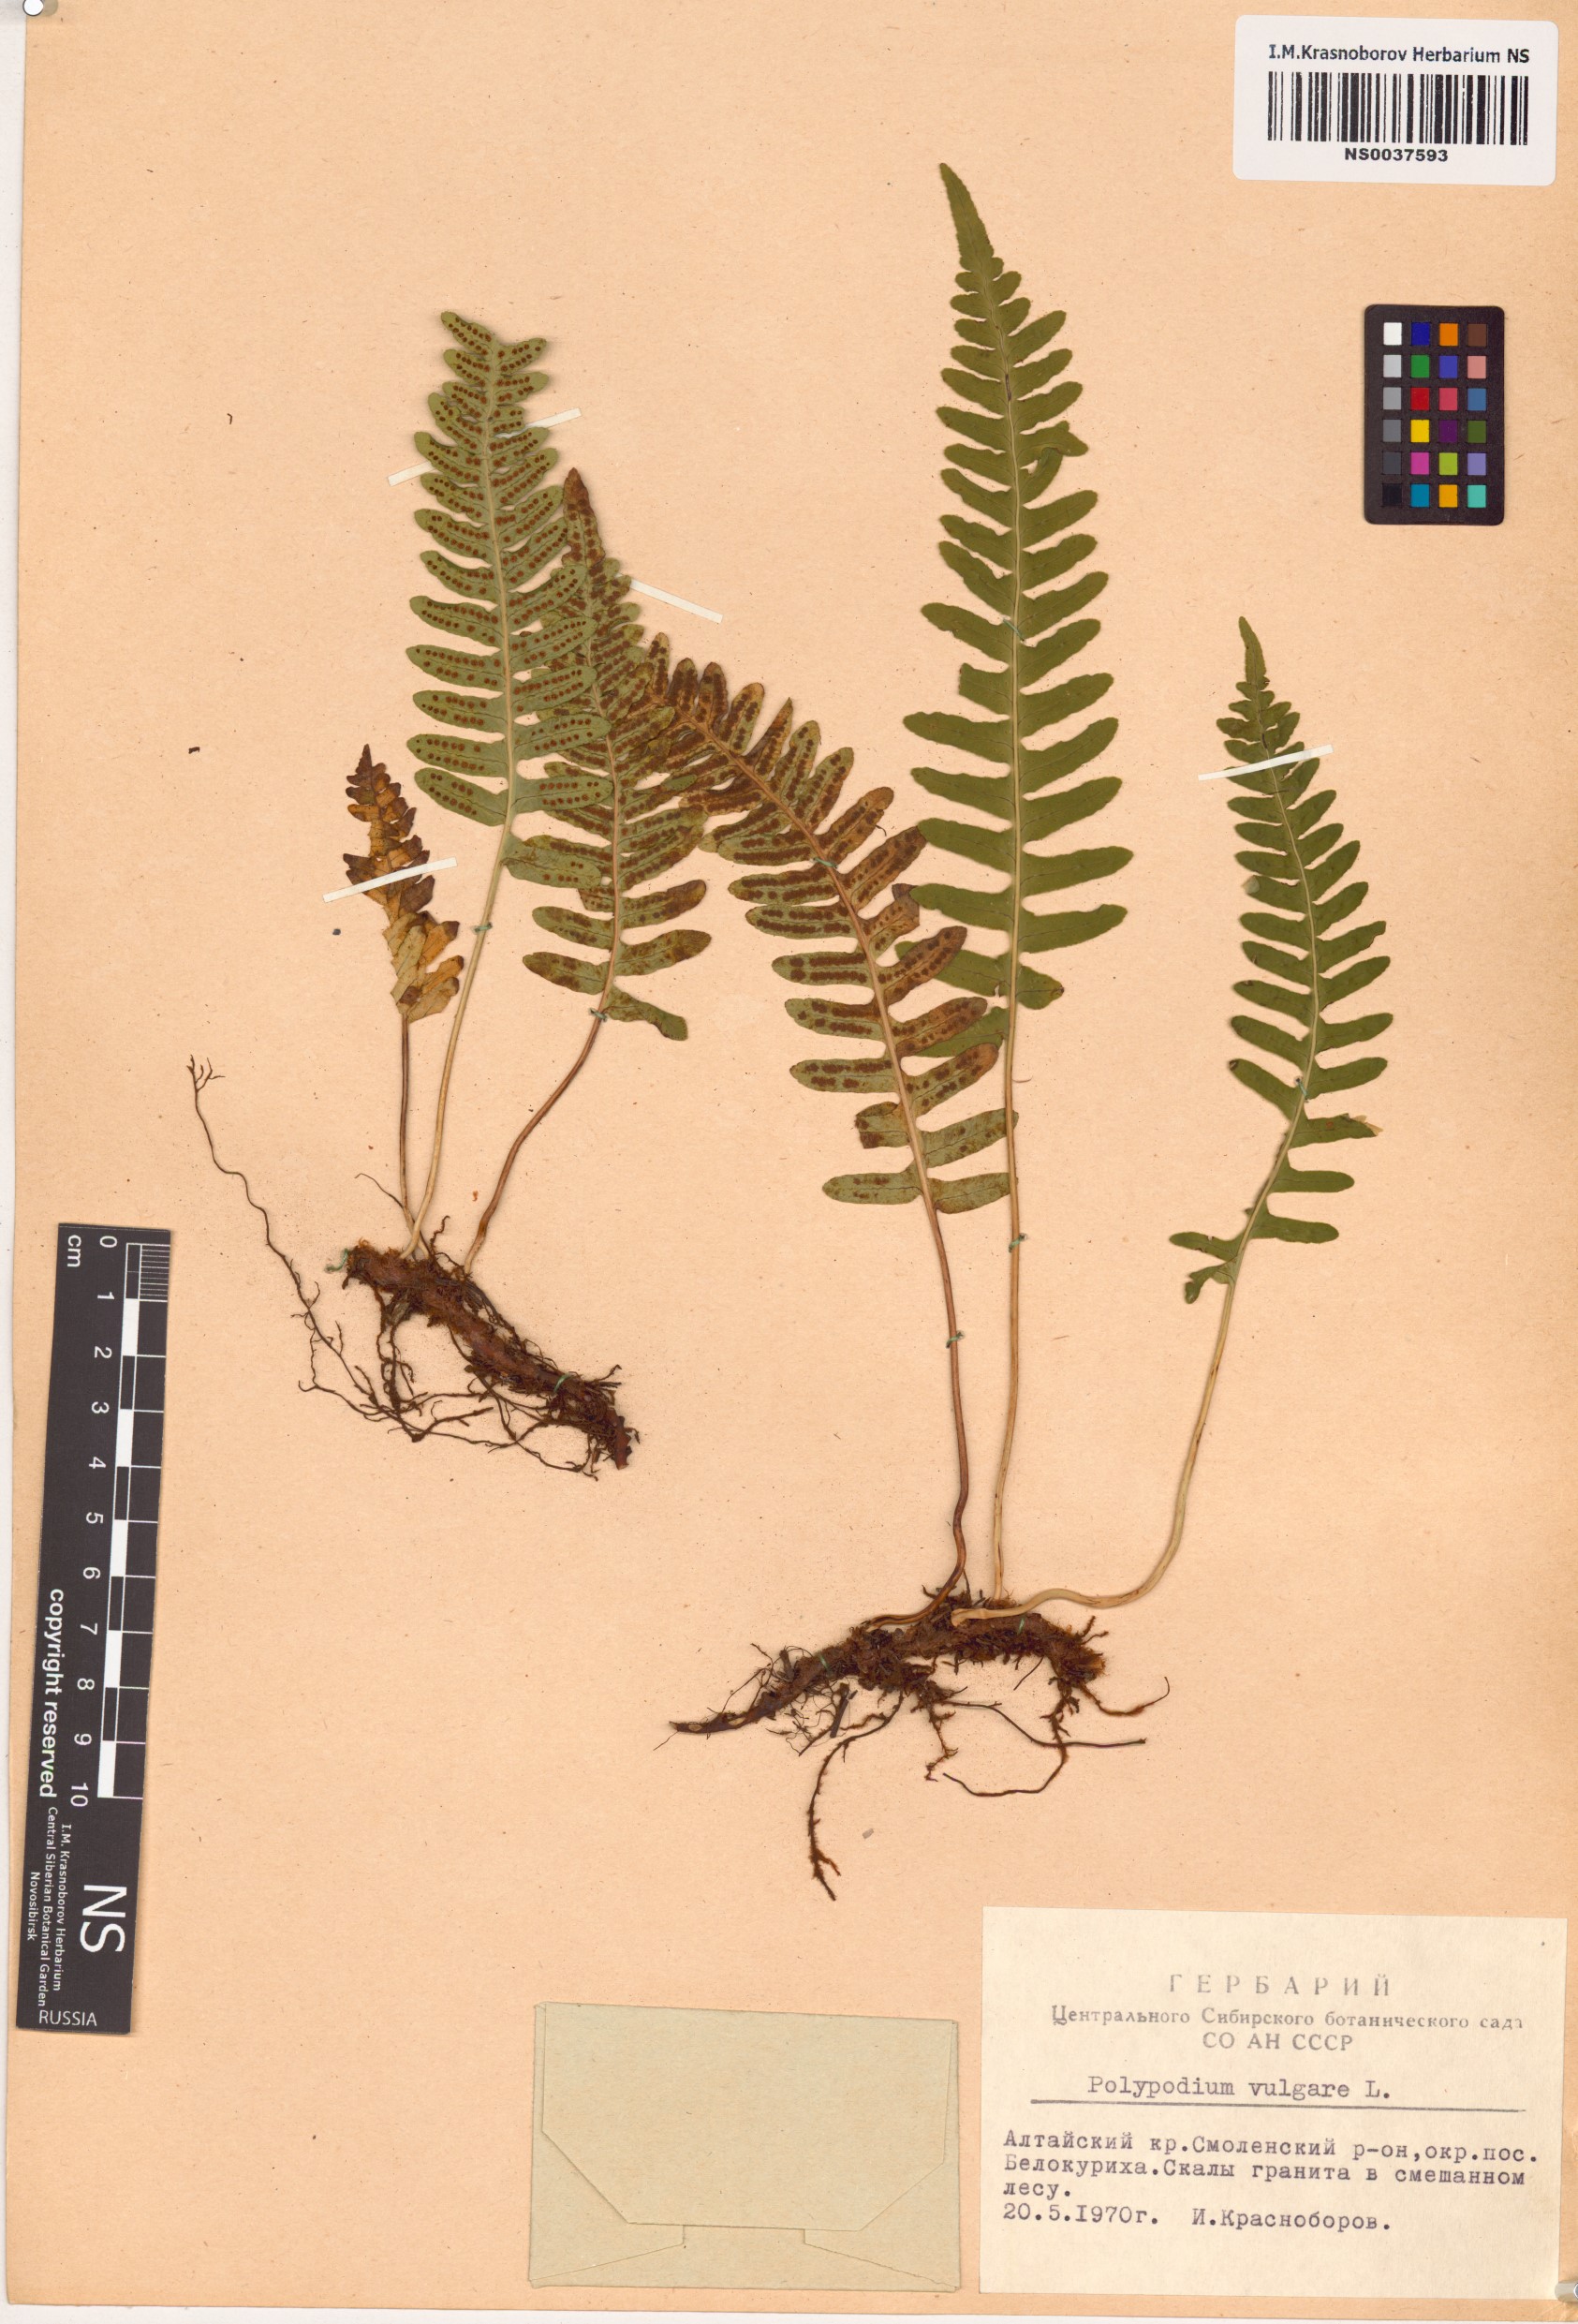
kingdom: Plantae
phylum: Tracheophyta
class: Polypodiopsida
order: Polypodiales
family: Polypodiaceae
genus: Polypodium
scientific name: Polypodium vulgare
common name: Common polypody
